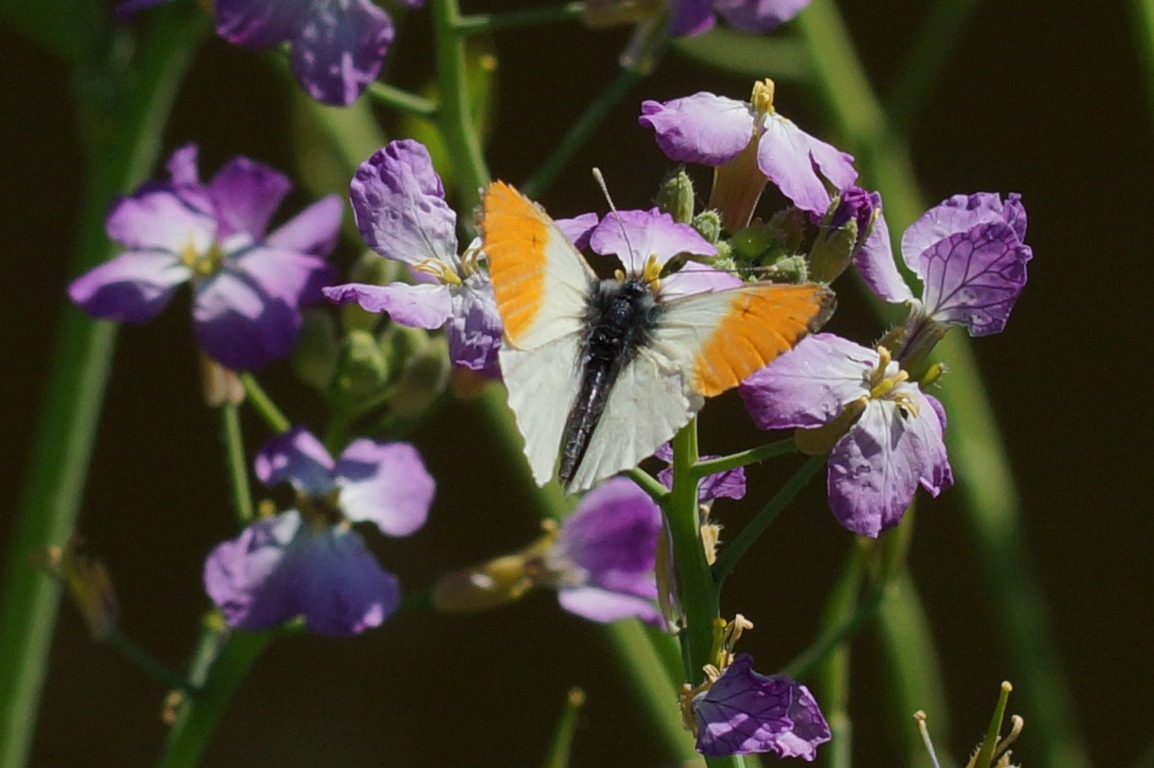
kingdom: Animalia
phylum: Arthropoda
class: Insecta
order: Lepidoptera
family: Pieridae
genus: Anthocharis
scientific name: Anthocharis cardamines
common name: Aurora
